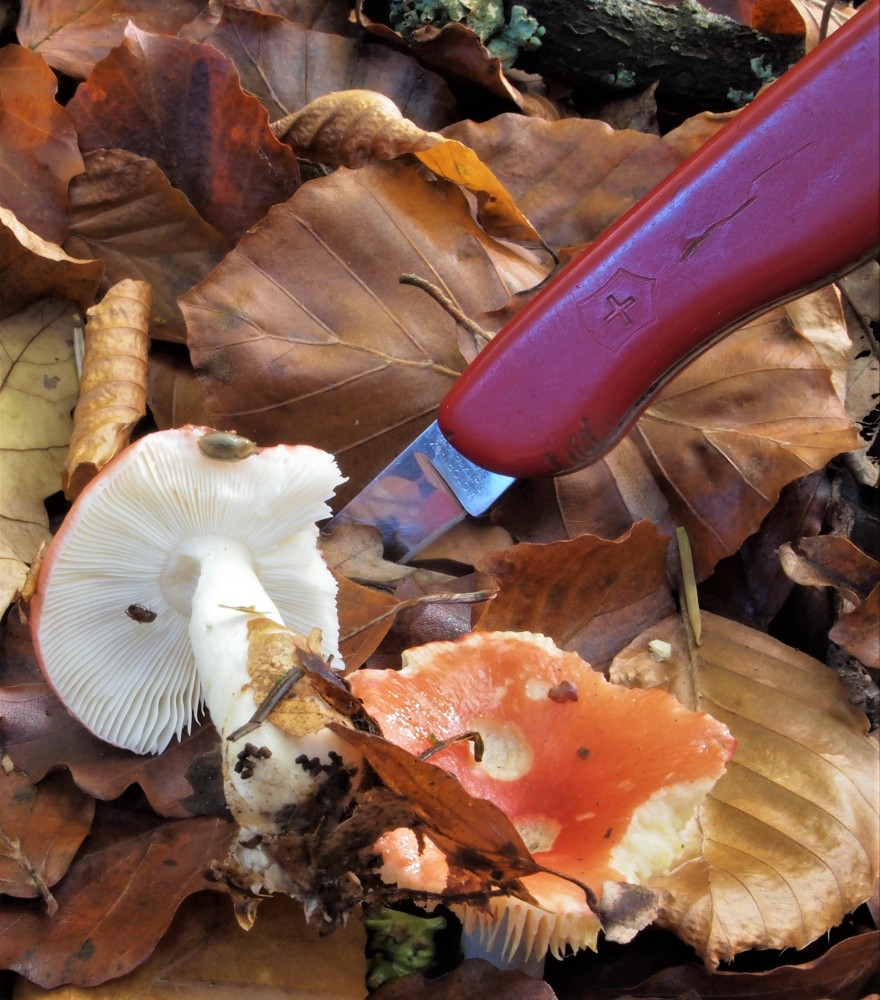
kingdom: Fungi
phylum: Basidiomycota
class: Agaricomycetes
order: Russulales
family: Russulaceae
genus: Russula
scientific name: Russula silvestris
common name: mellemstor gift-skørhat
